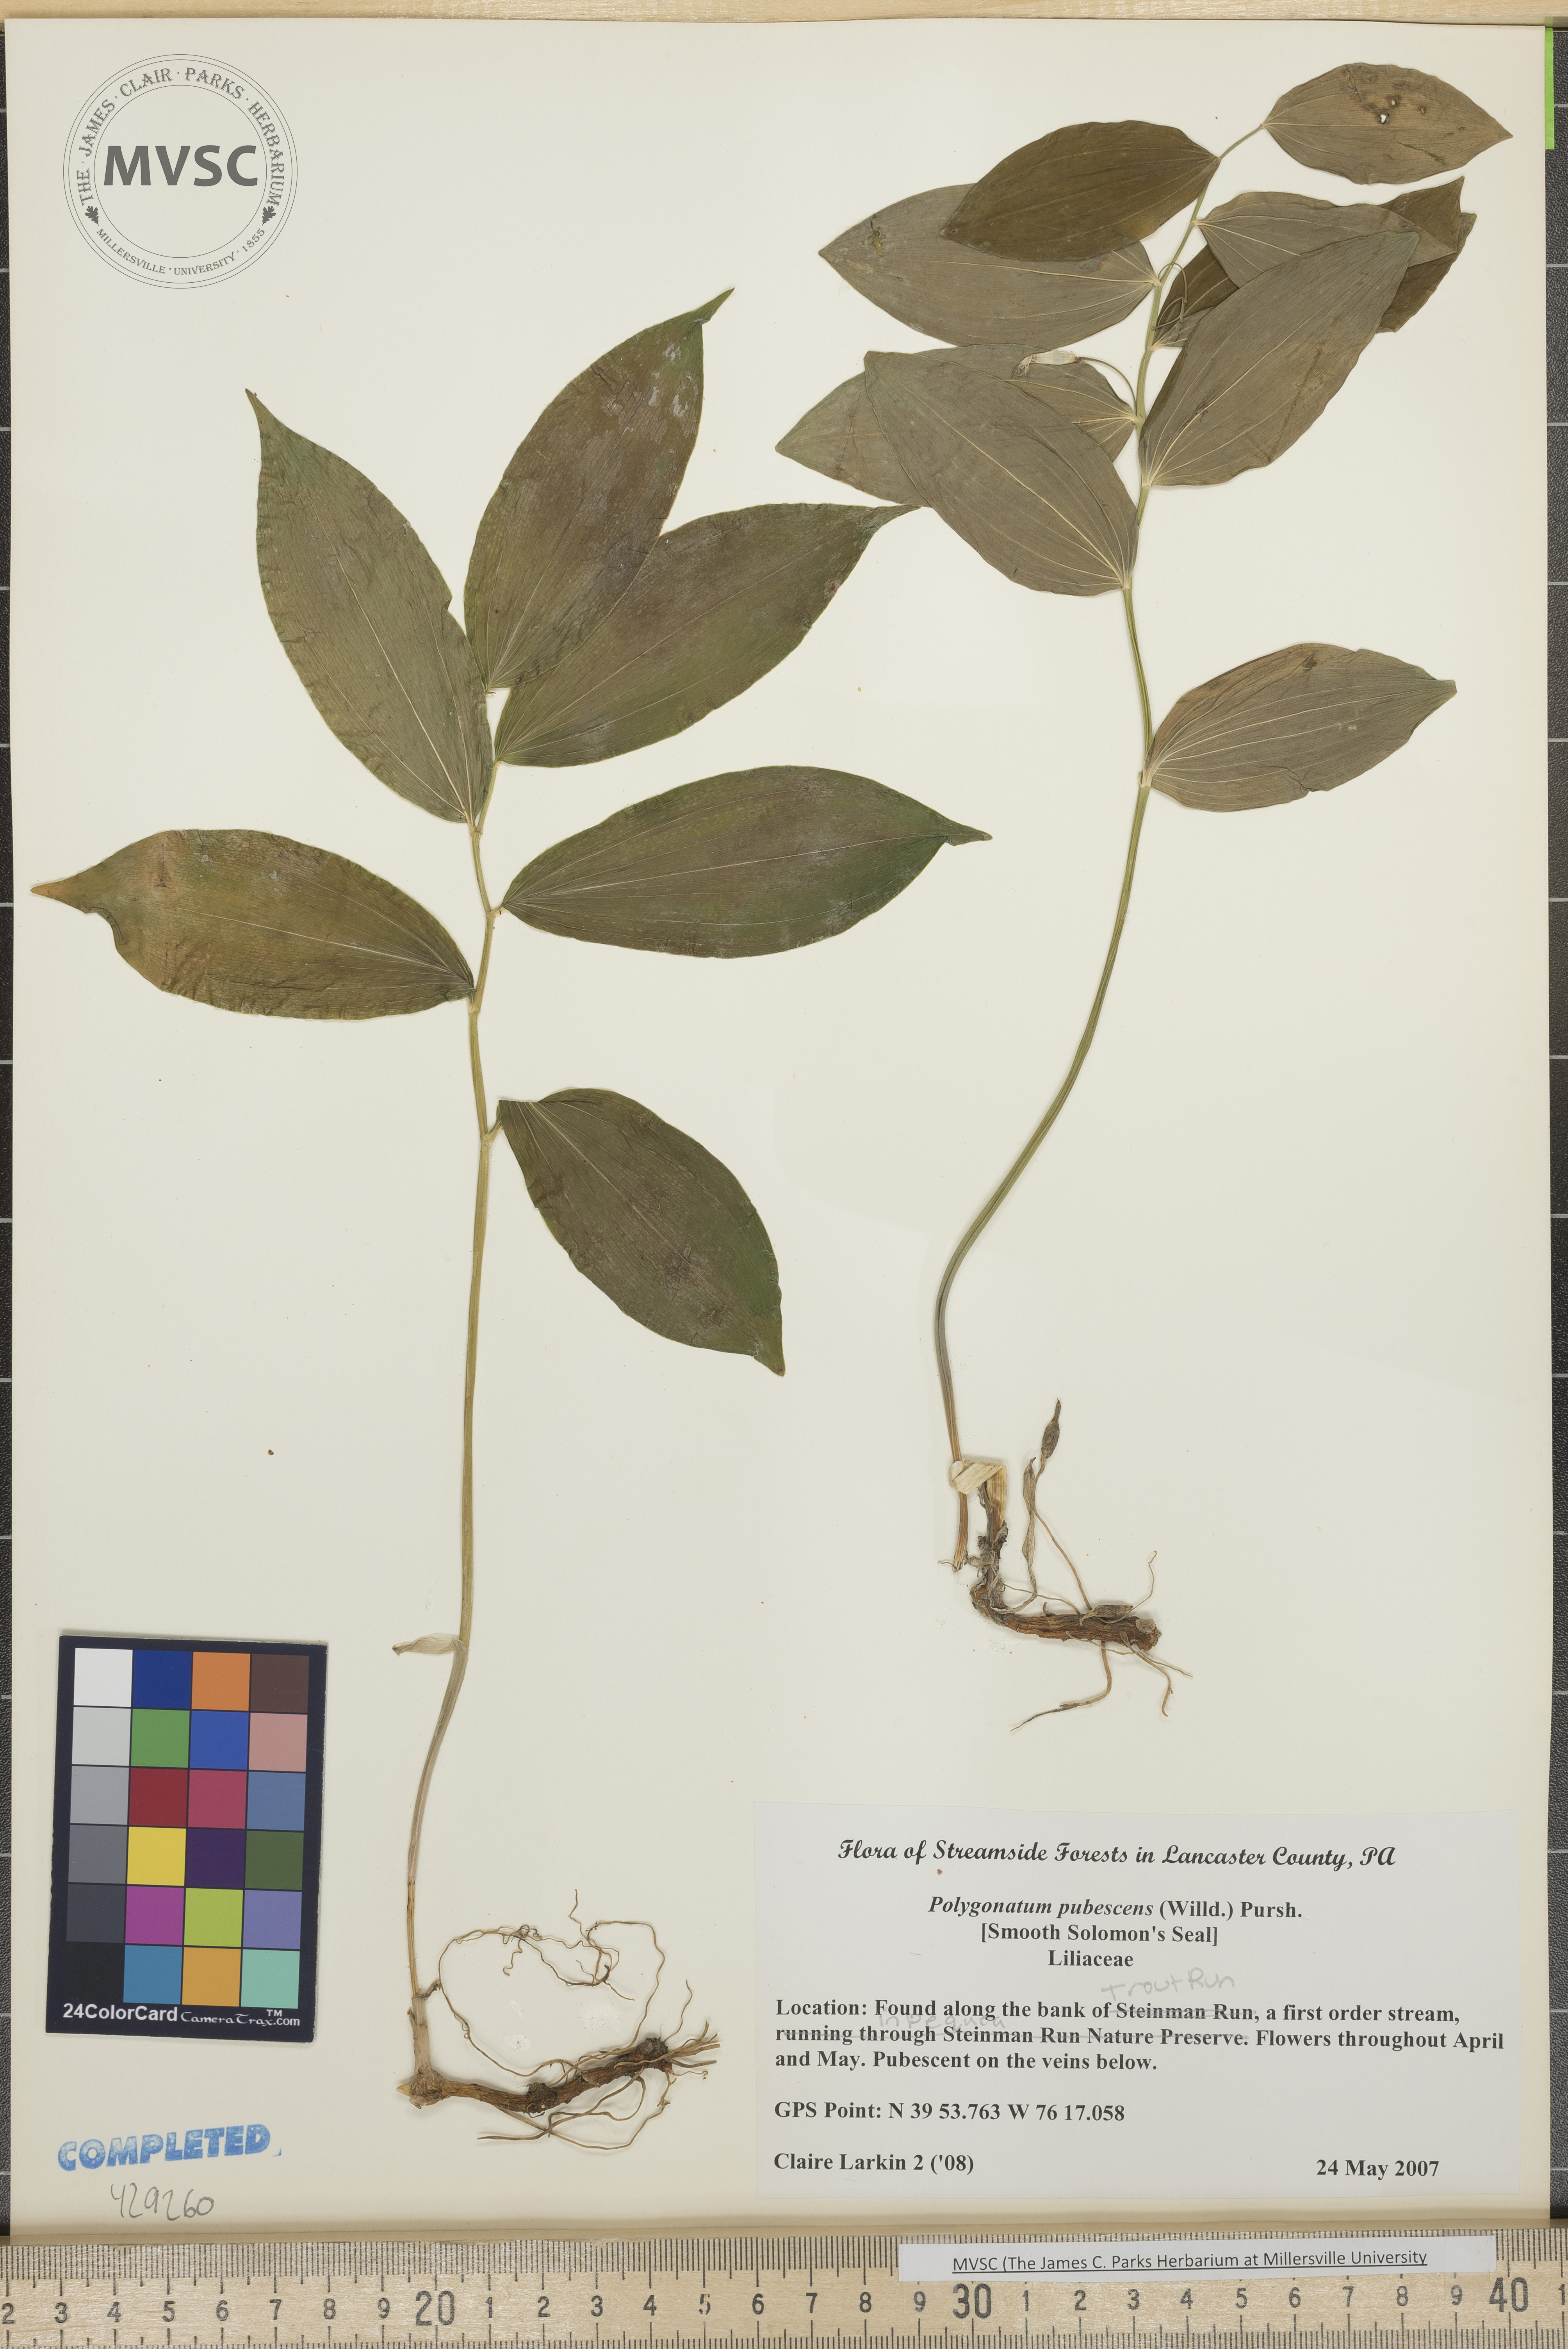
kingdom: Plantae
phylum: Tracheophyta
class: Liliopsida
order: Asparagales
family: Asparagaceae
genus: Polygonatum
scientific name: Polygonatum pubescens
